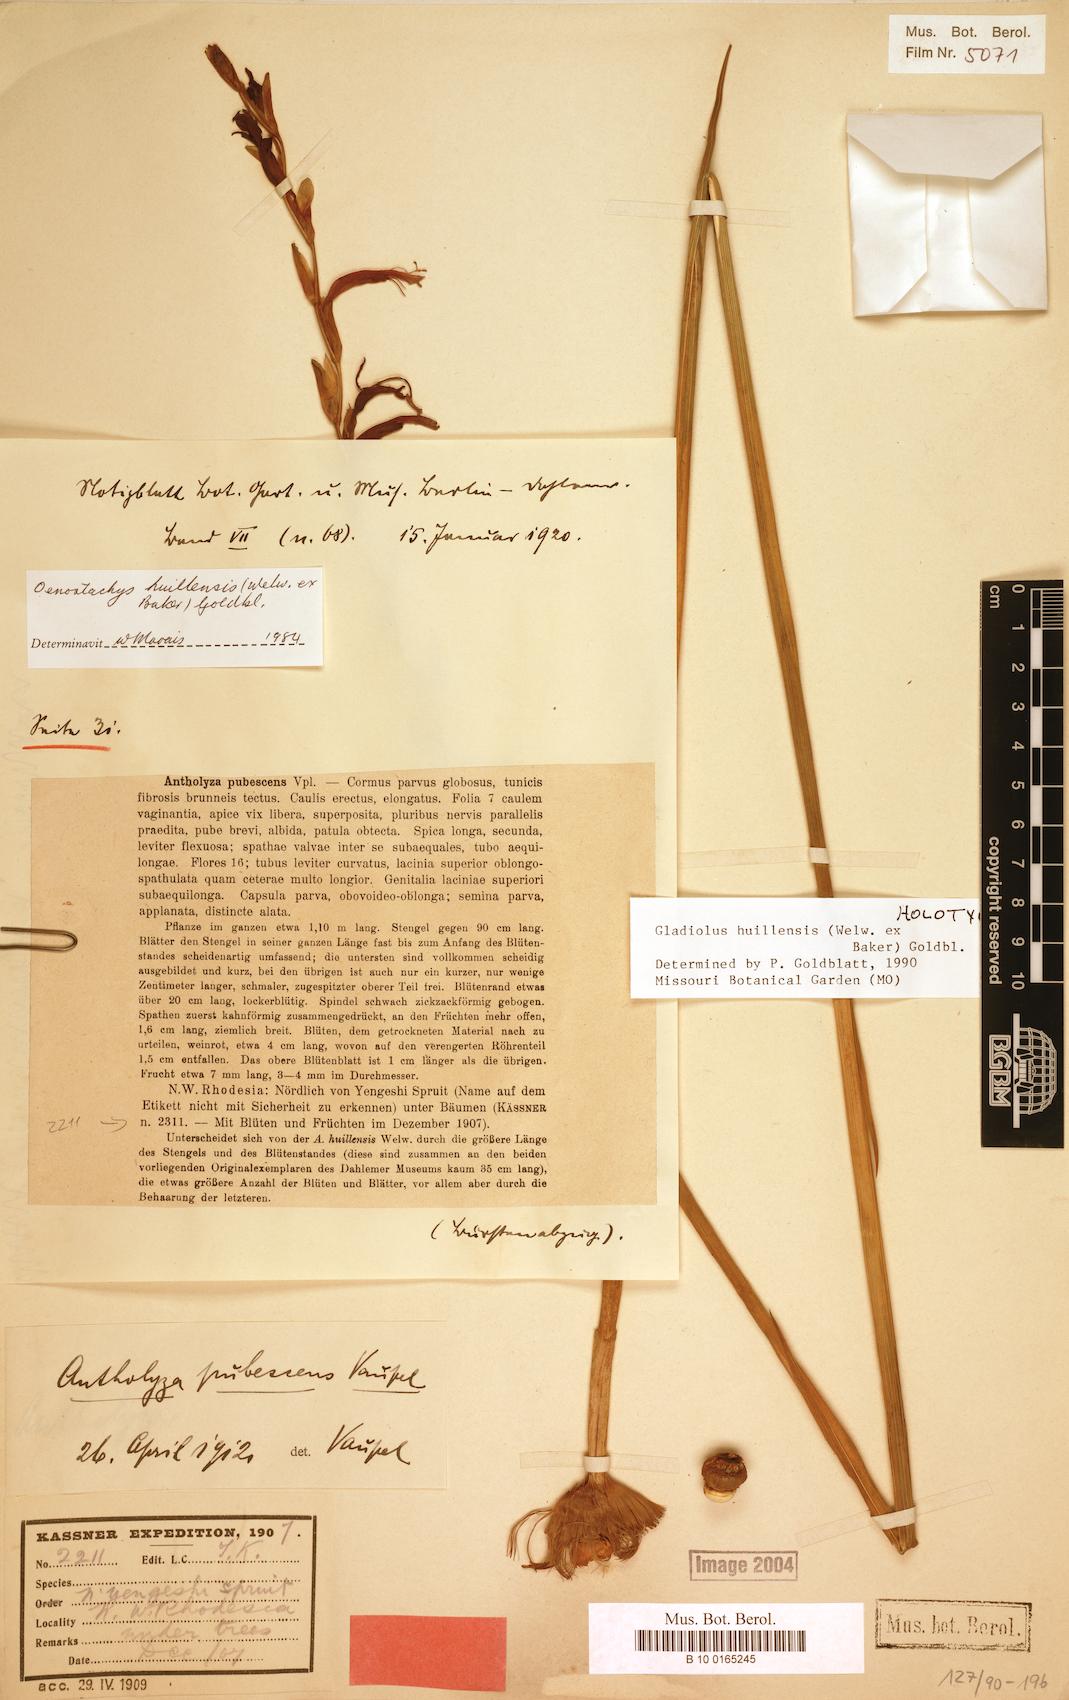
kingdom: Plantae
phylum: Tracheophyta
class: Liliopsida
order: Asparagales
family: Iridaceae
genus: Gladiolus
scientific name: Gladiolus huillensis
